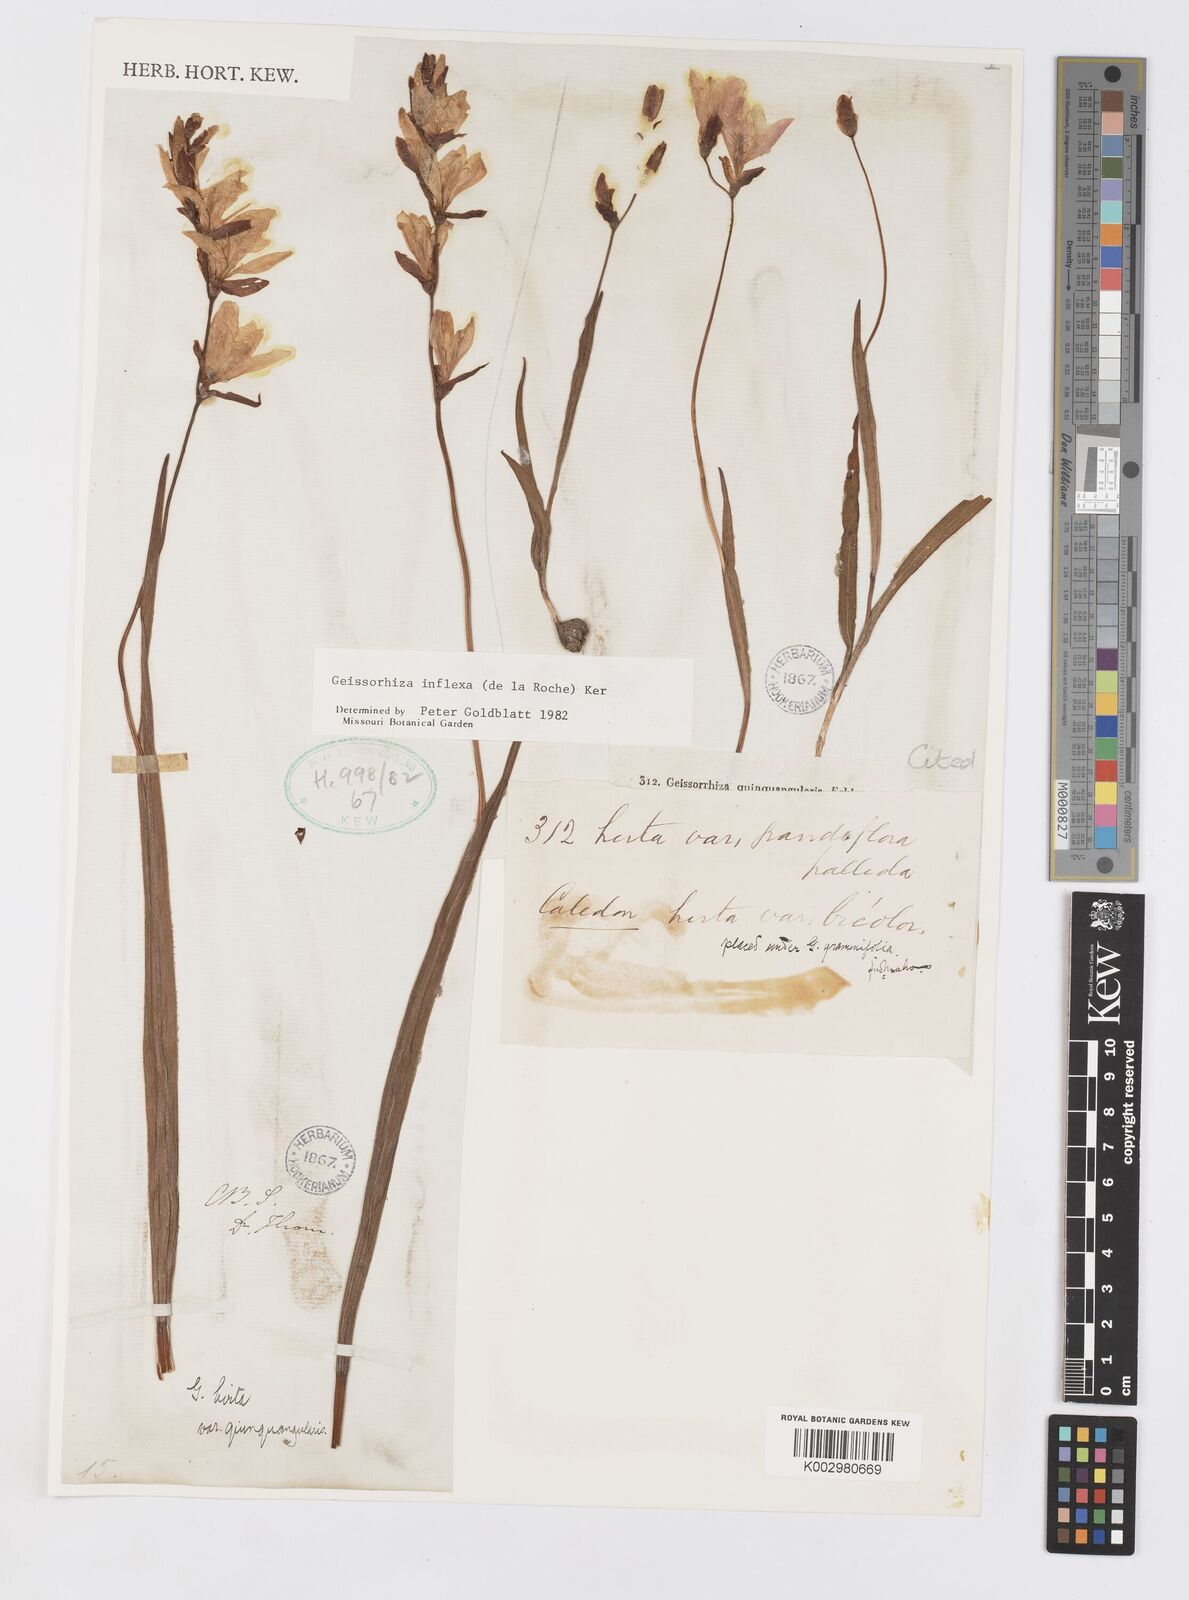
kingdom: Plantae
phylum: Tracheophyta
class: Liliopsida
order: Asparagales
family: Iridaceae
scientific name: Iridaceae
